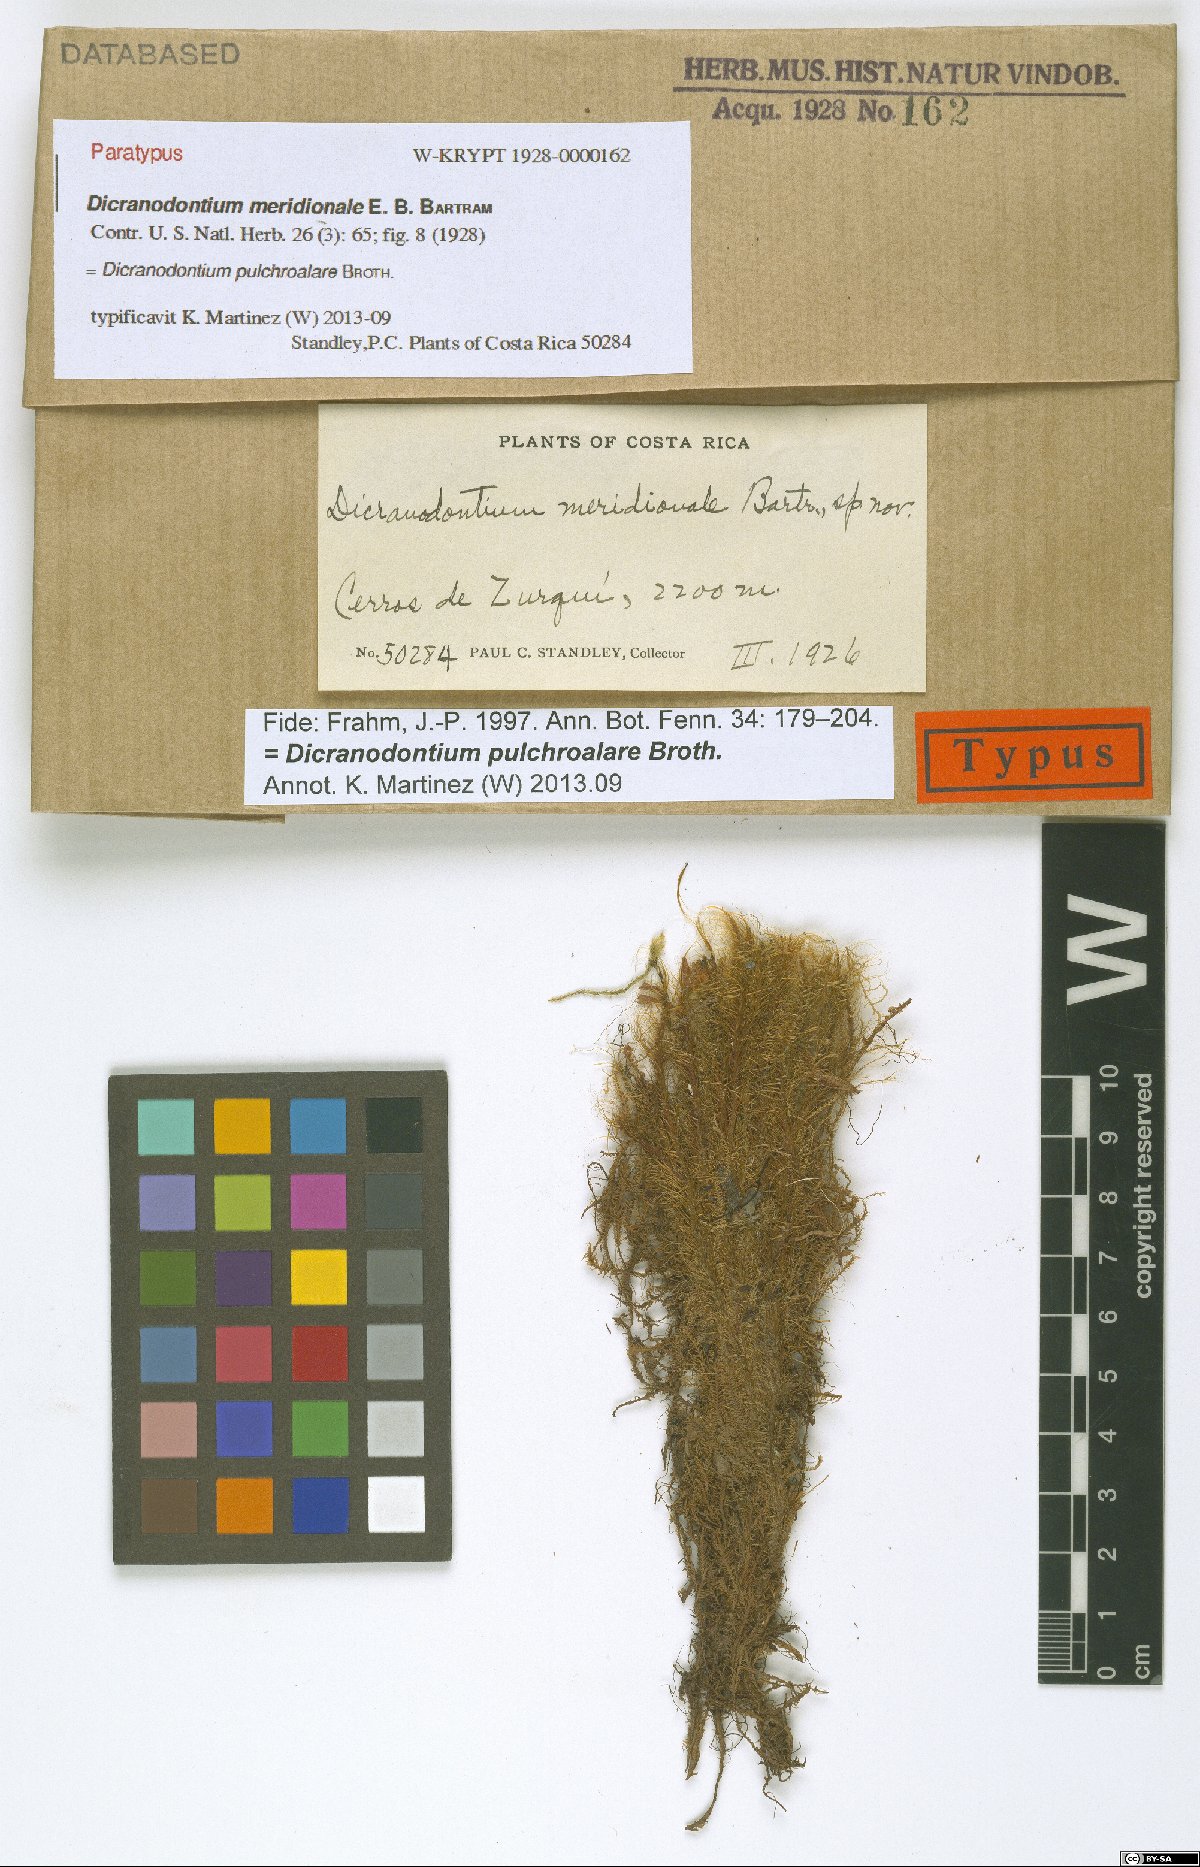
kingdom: Plantae
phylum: Bryophyta
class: Bryopsida
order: Dicranales
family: Leucobryaceae
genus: Dicranodontium
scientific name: Dicranodontium pulchroalare
